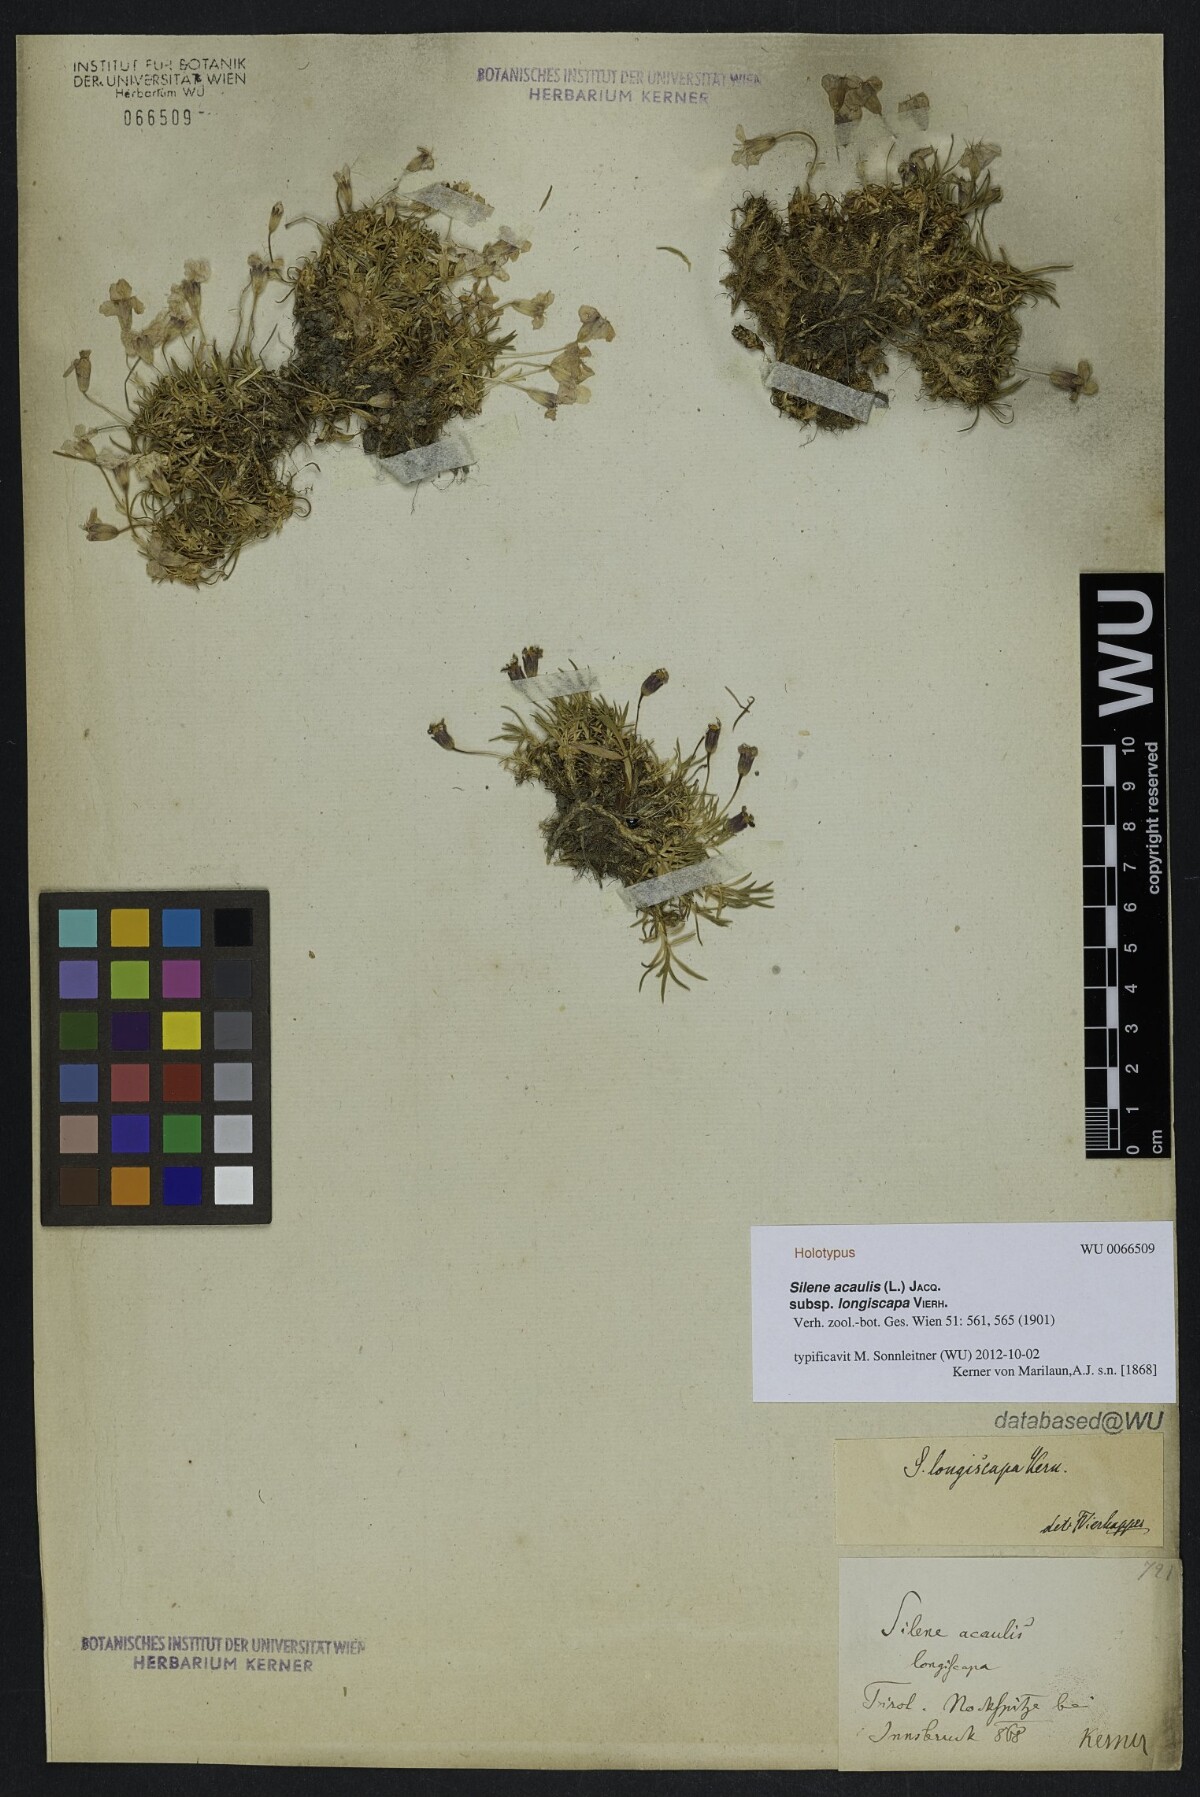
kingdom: Plantae
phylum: Tracheophyta
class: Magnoliopsida
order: Caryophyllales
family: Caryophyllaceae
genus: Silene
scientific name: Silene acaulis
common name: Moss campion
